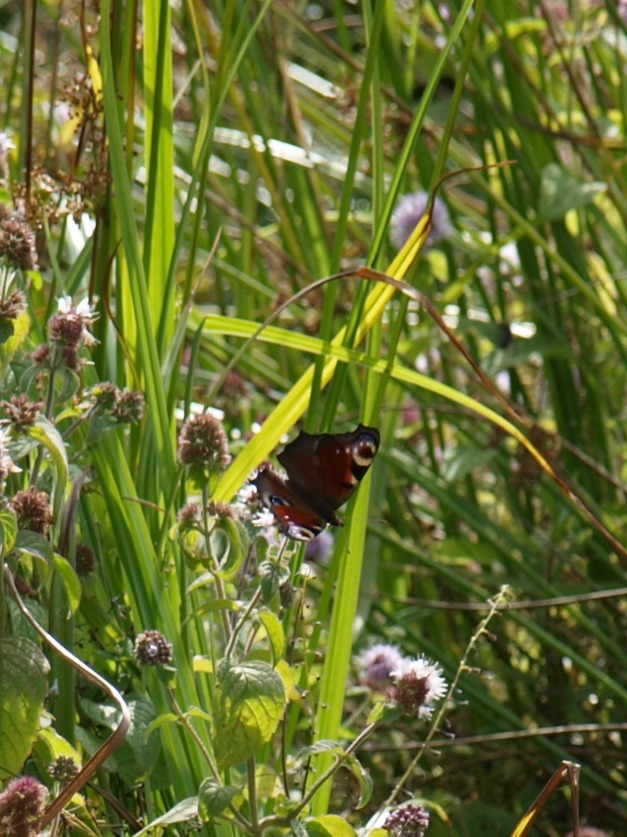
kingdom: Animalia
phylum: Arthropoda
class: Insecta
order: Lepidoptera
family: Nymphalidae
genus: Aglais
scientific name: Aglais io
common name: Dagpåfugleøje
